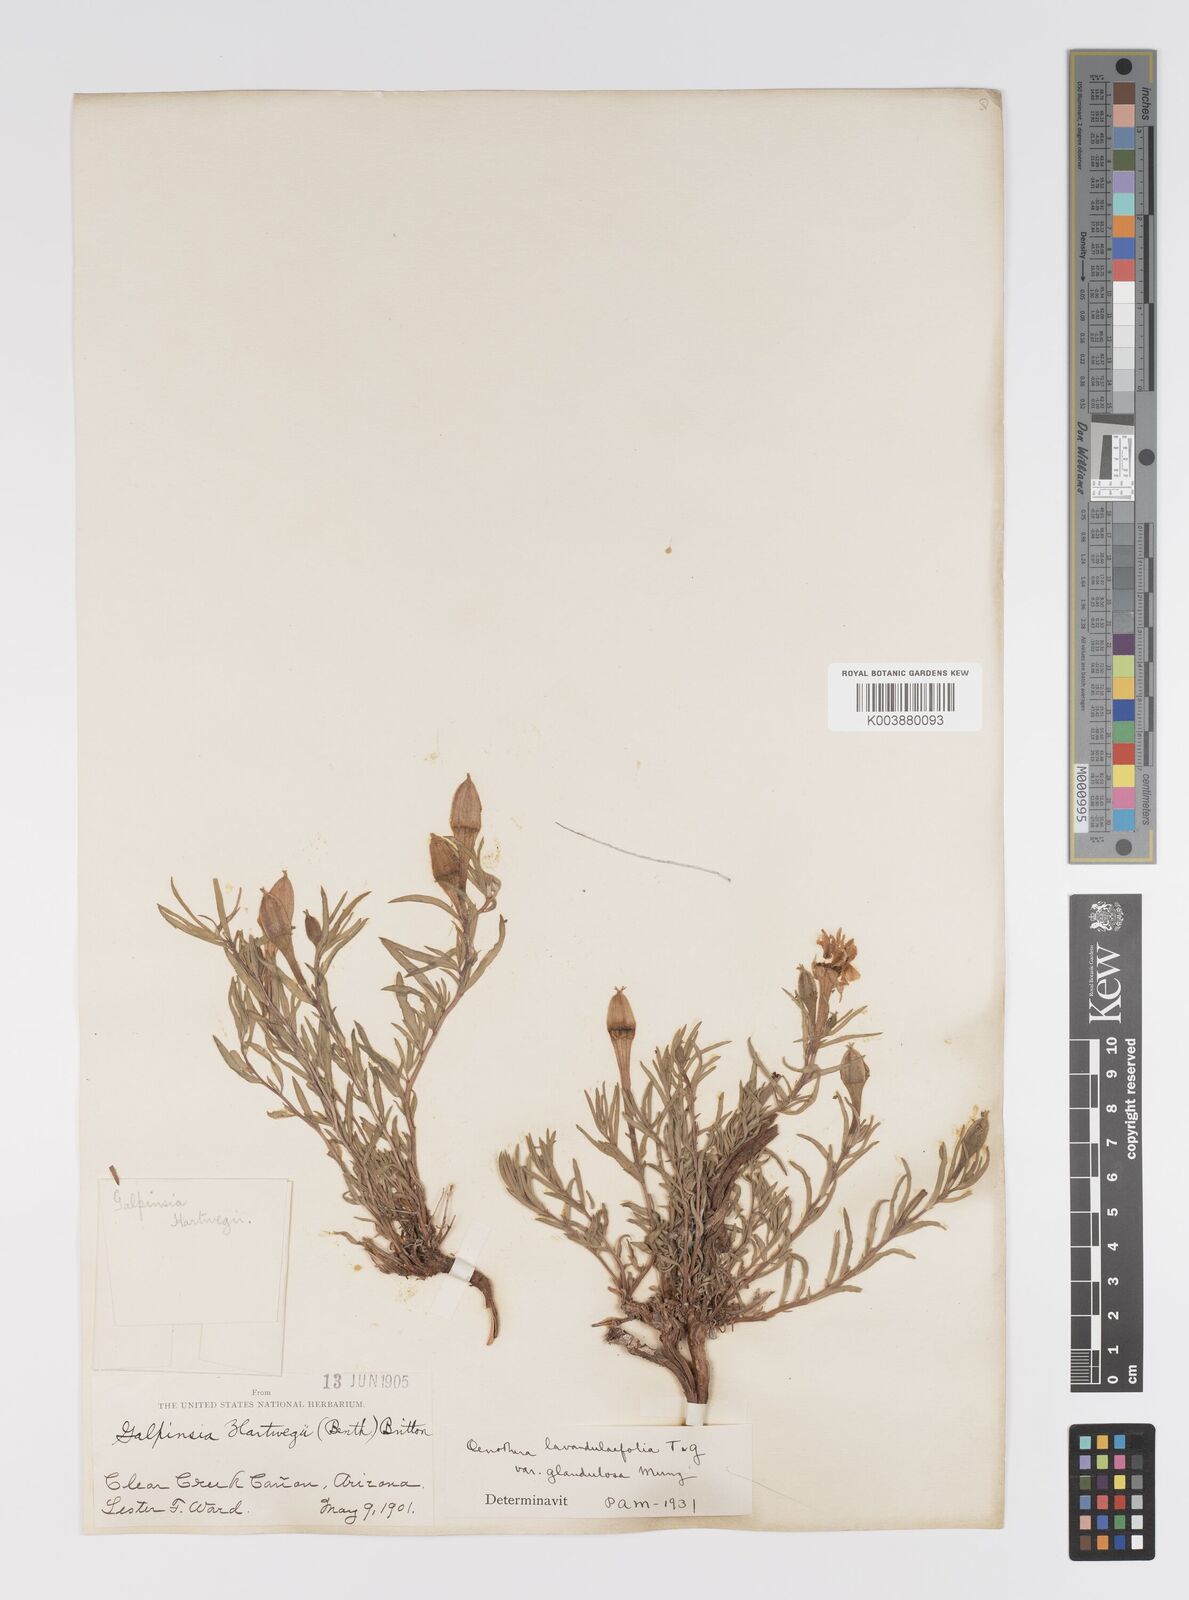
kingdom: Plantae
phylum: Tracheophyta
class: Magnoliopsida
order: Myrtales
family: Onagraceae
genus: Oenothera
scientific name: Oenothera lavandulifolia
